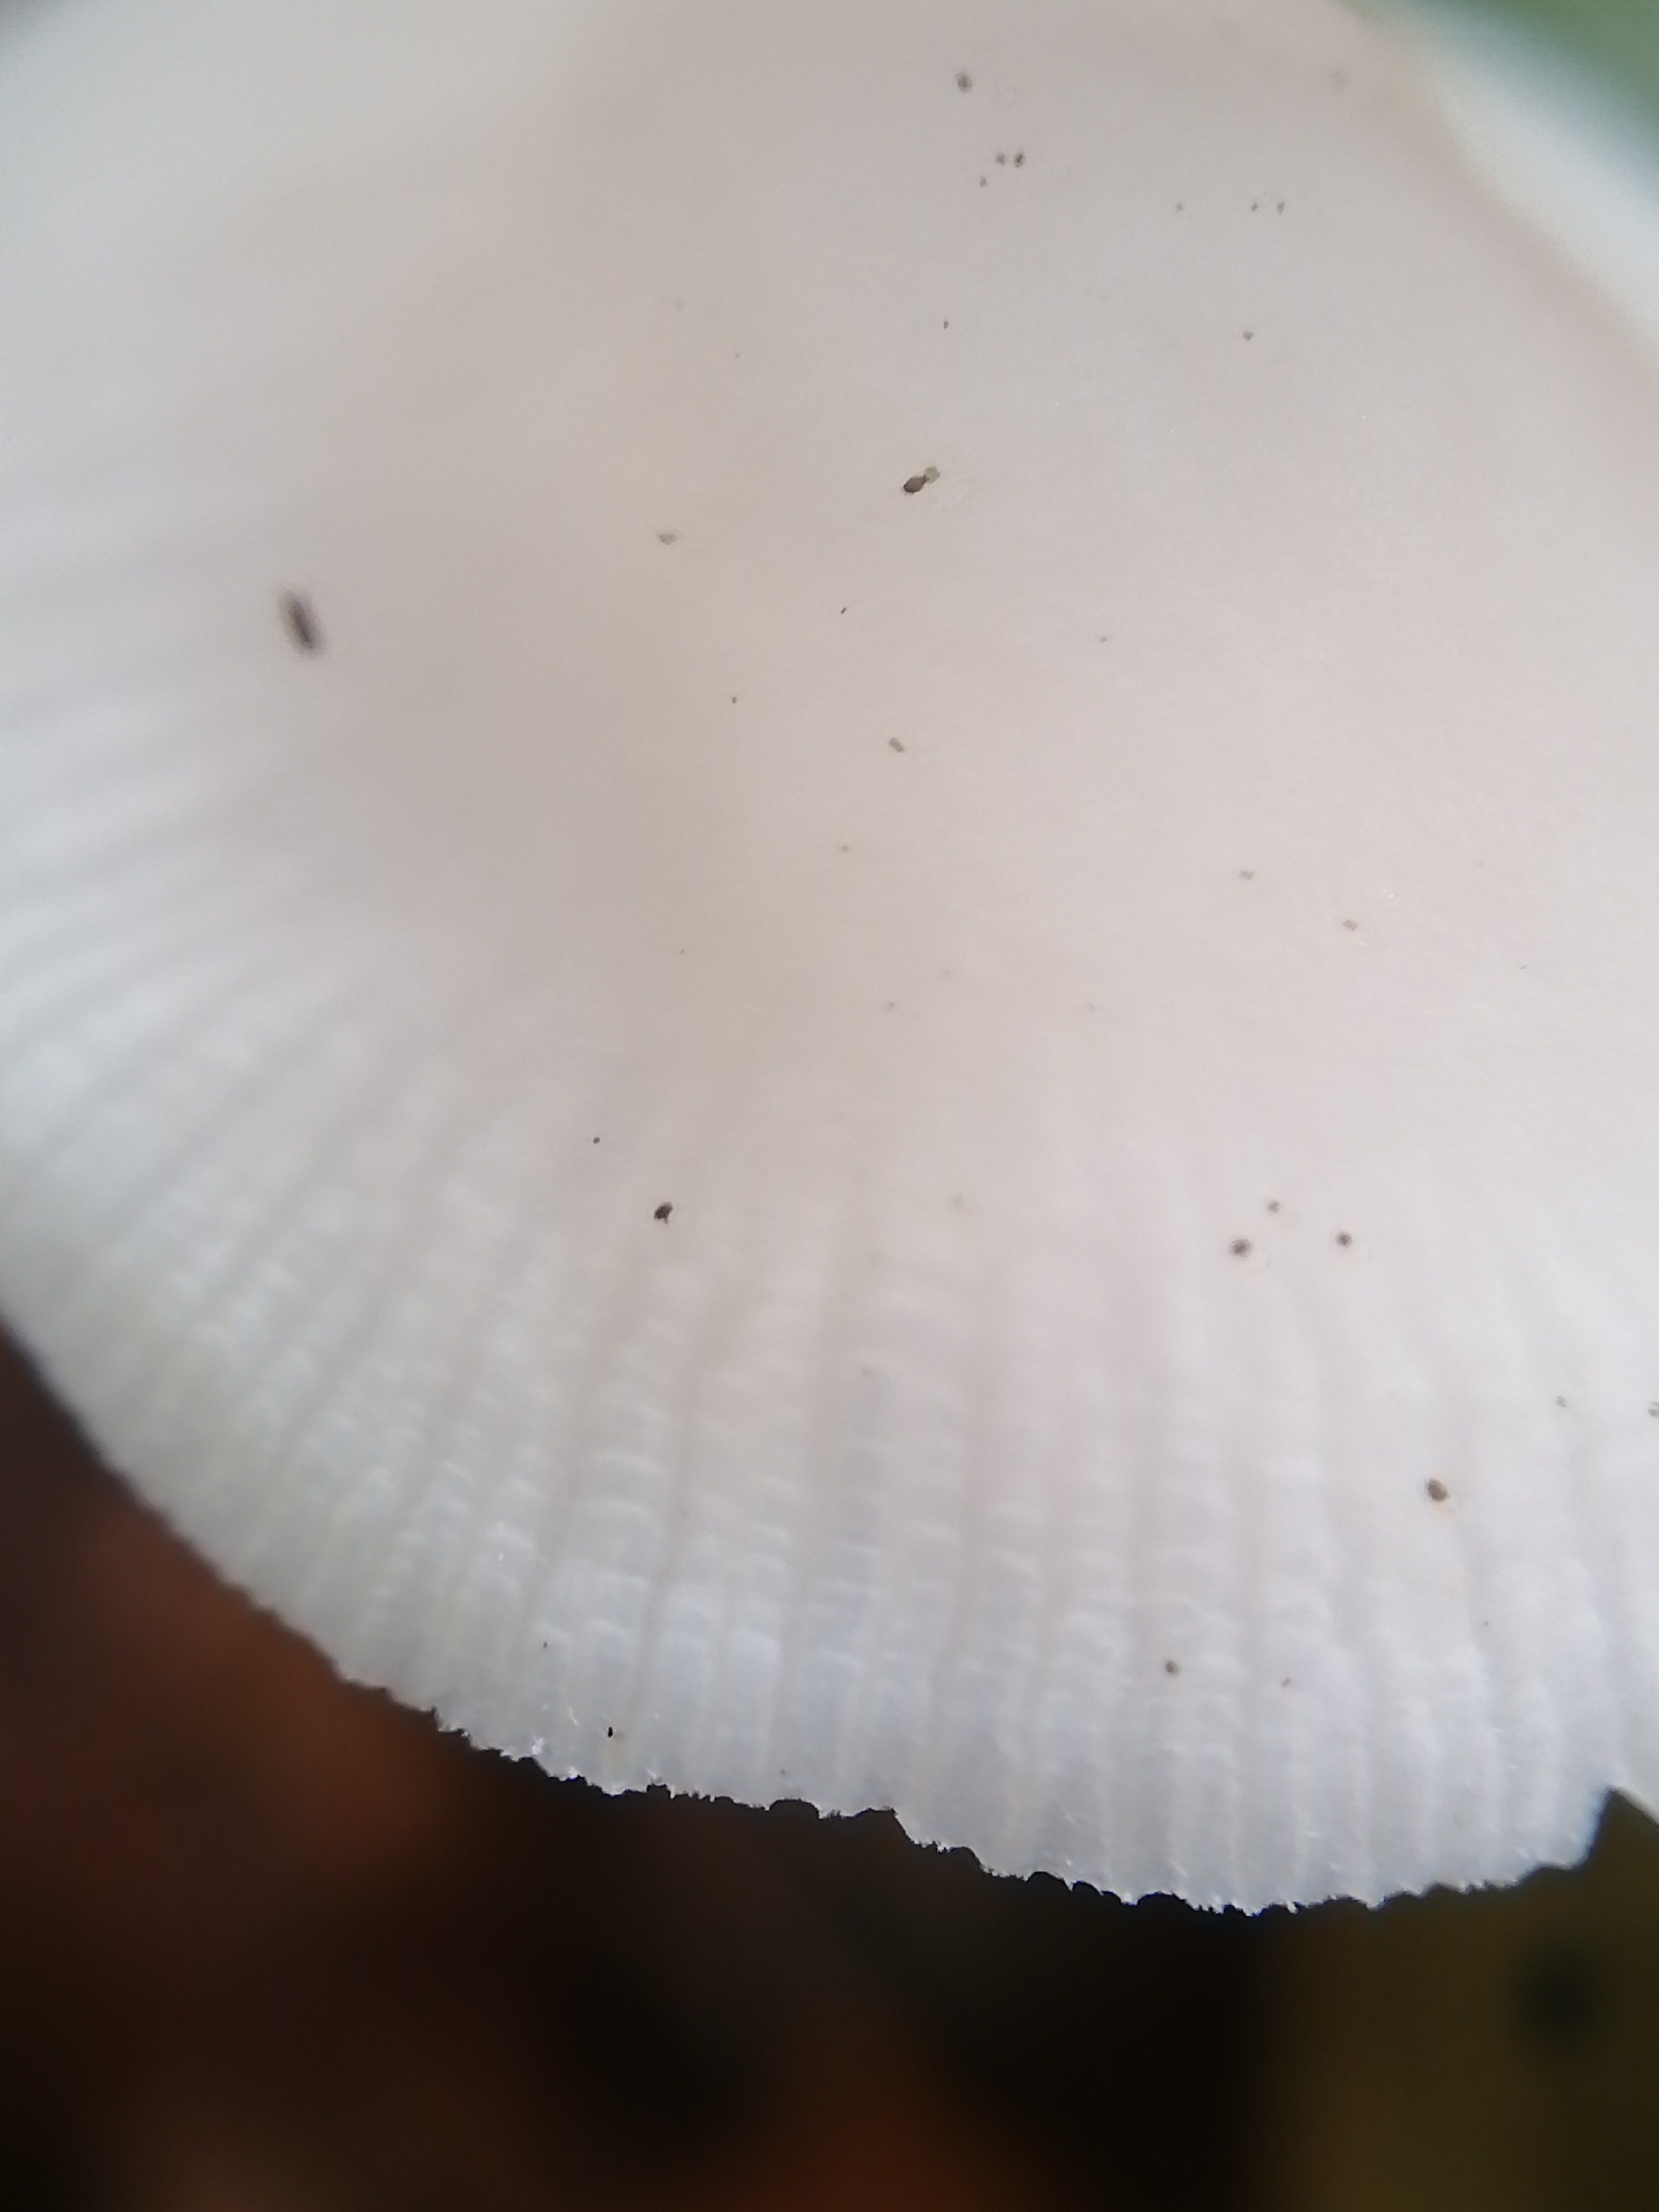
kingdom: Fungi
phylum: Basidiomycota
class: Agaricomycetes
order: Agaricales
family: Mycenaceae
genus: Mycena
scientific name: Mycena pura
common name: Lilac bonnet
